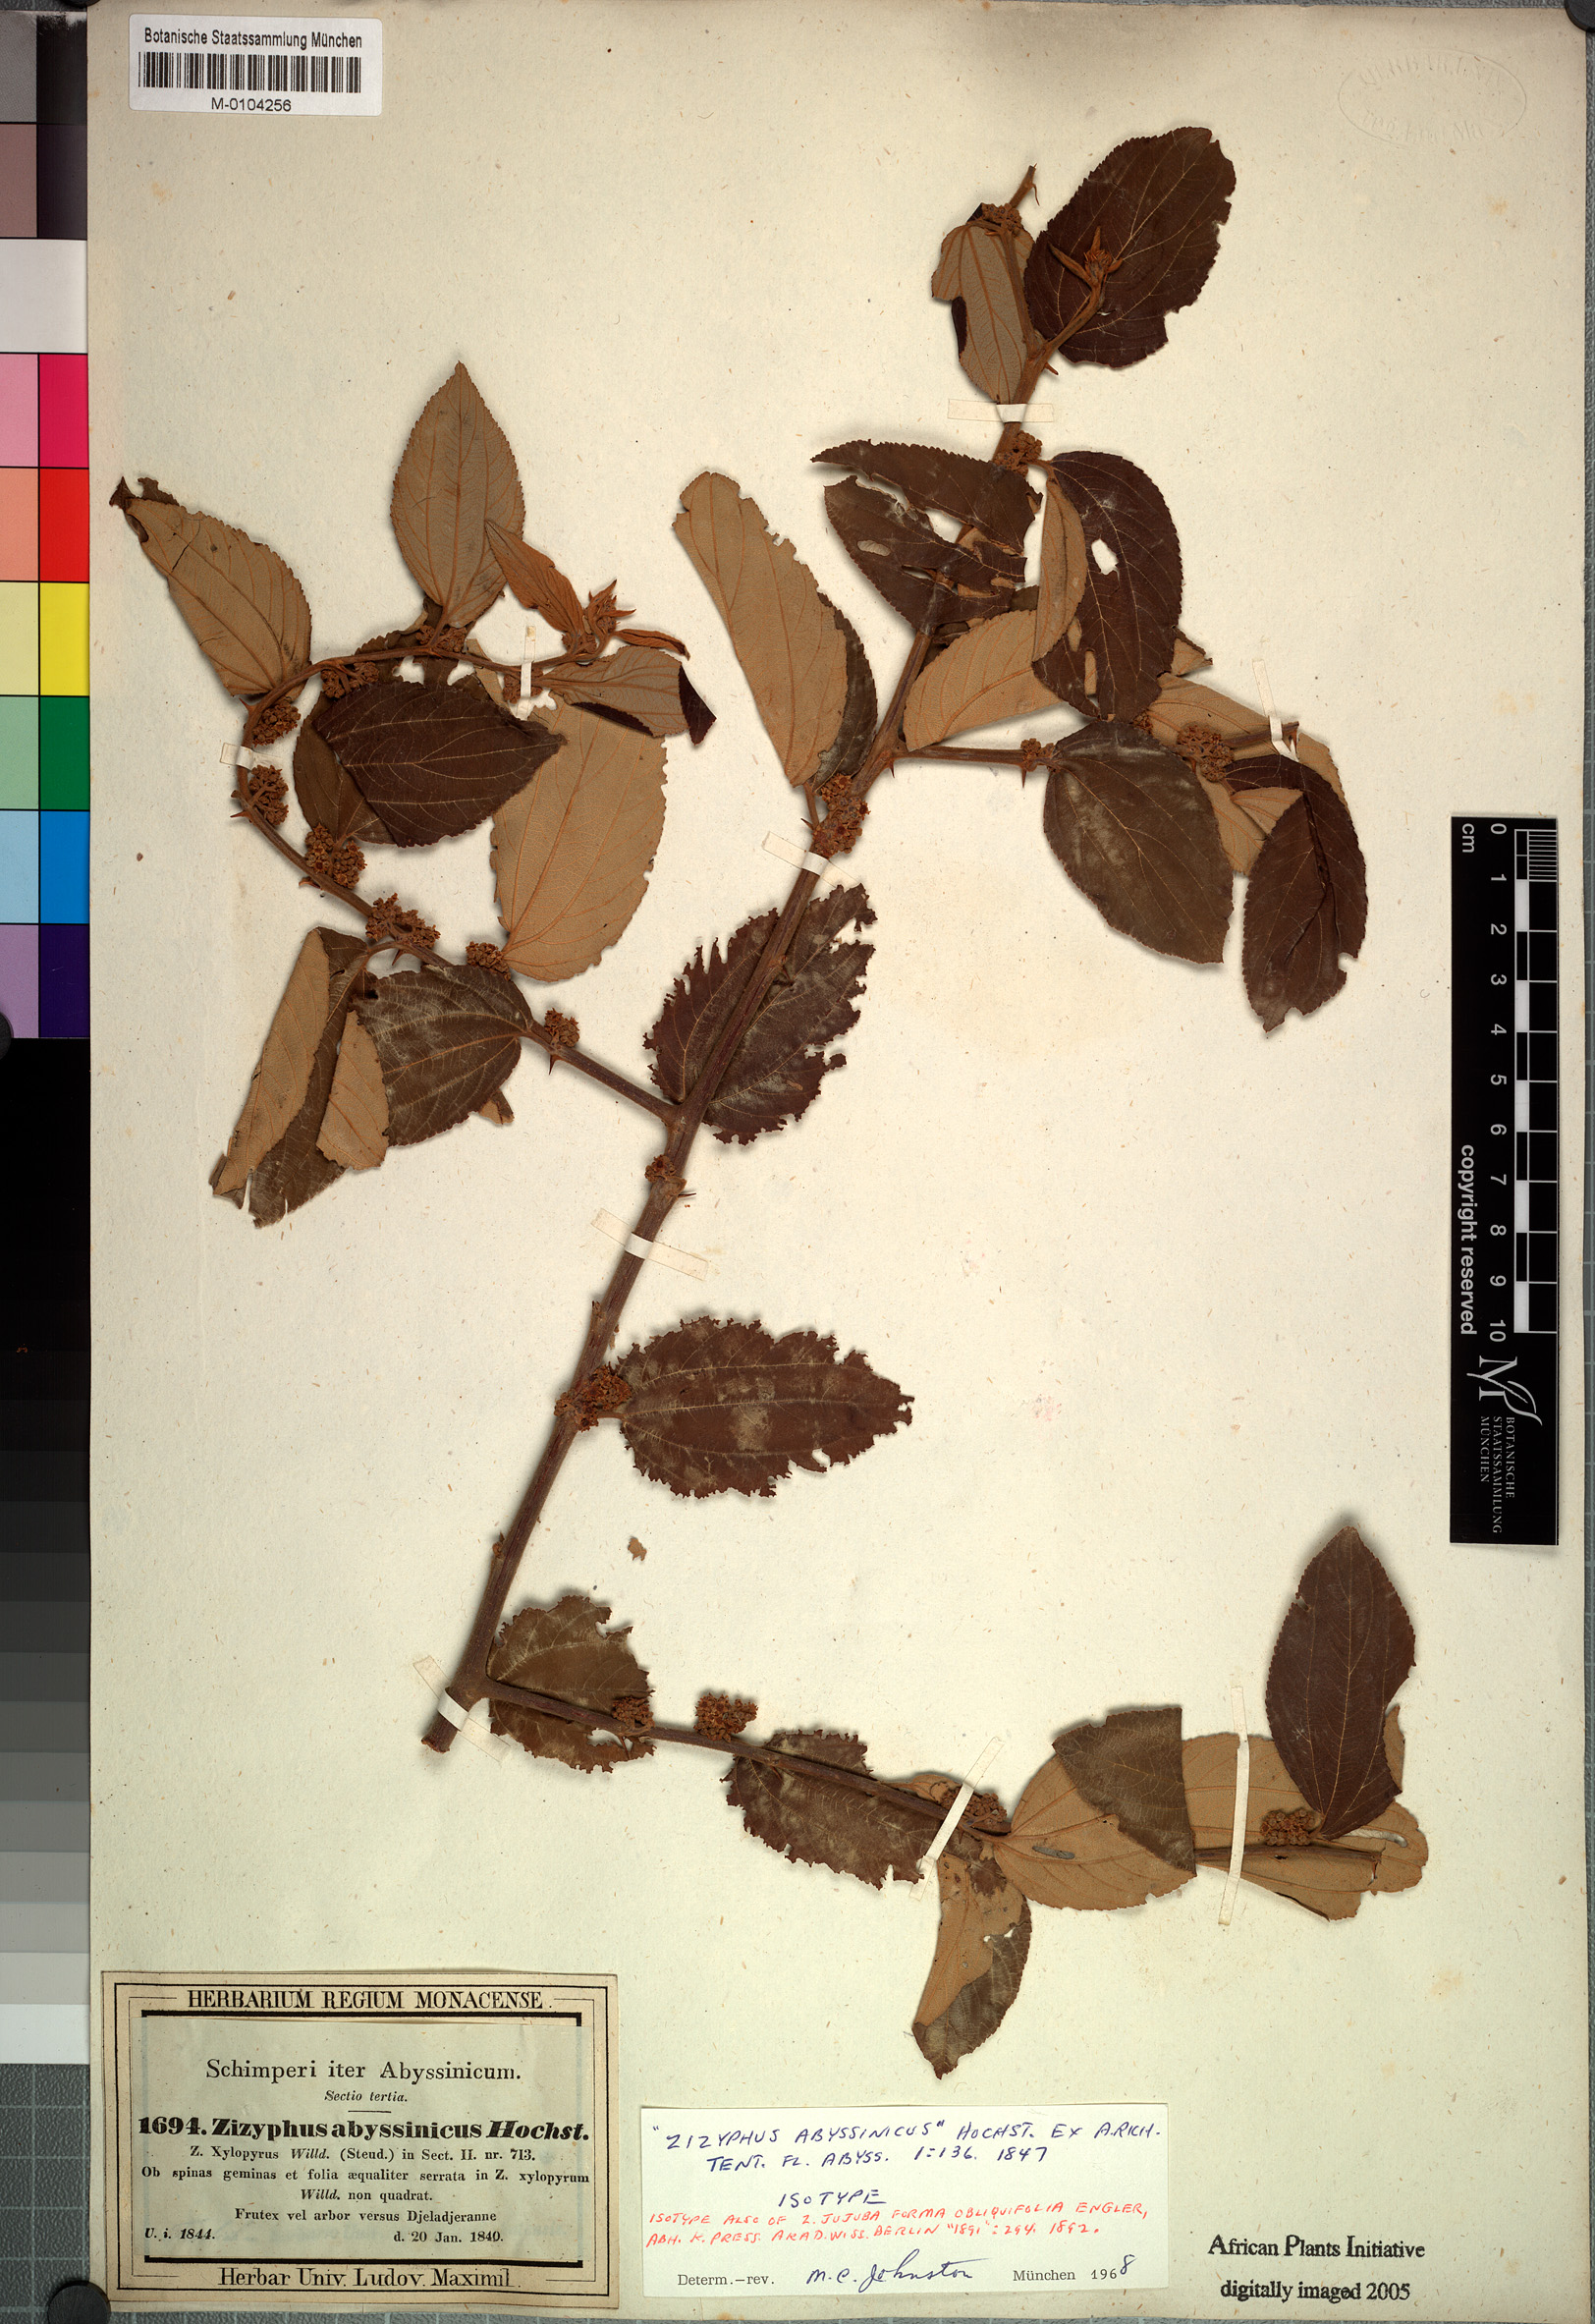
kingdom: Plantae
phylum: Tracheophyta
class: Magnoliopsida
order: Rosales
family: Rhamnaceae
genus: Ziziphus
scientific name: Ziziphus abyssinica
